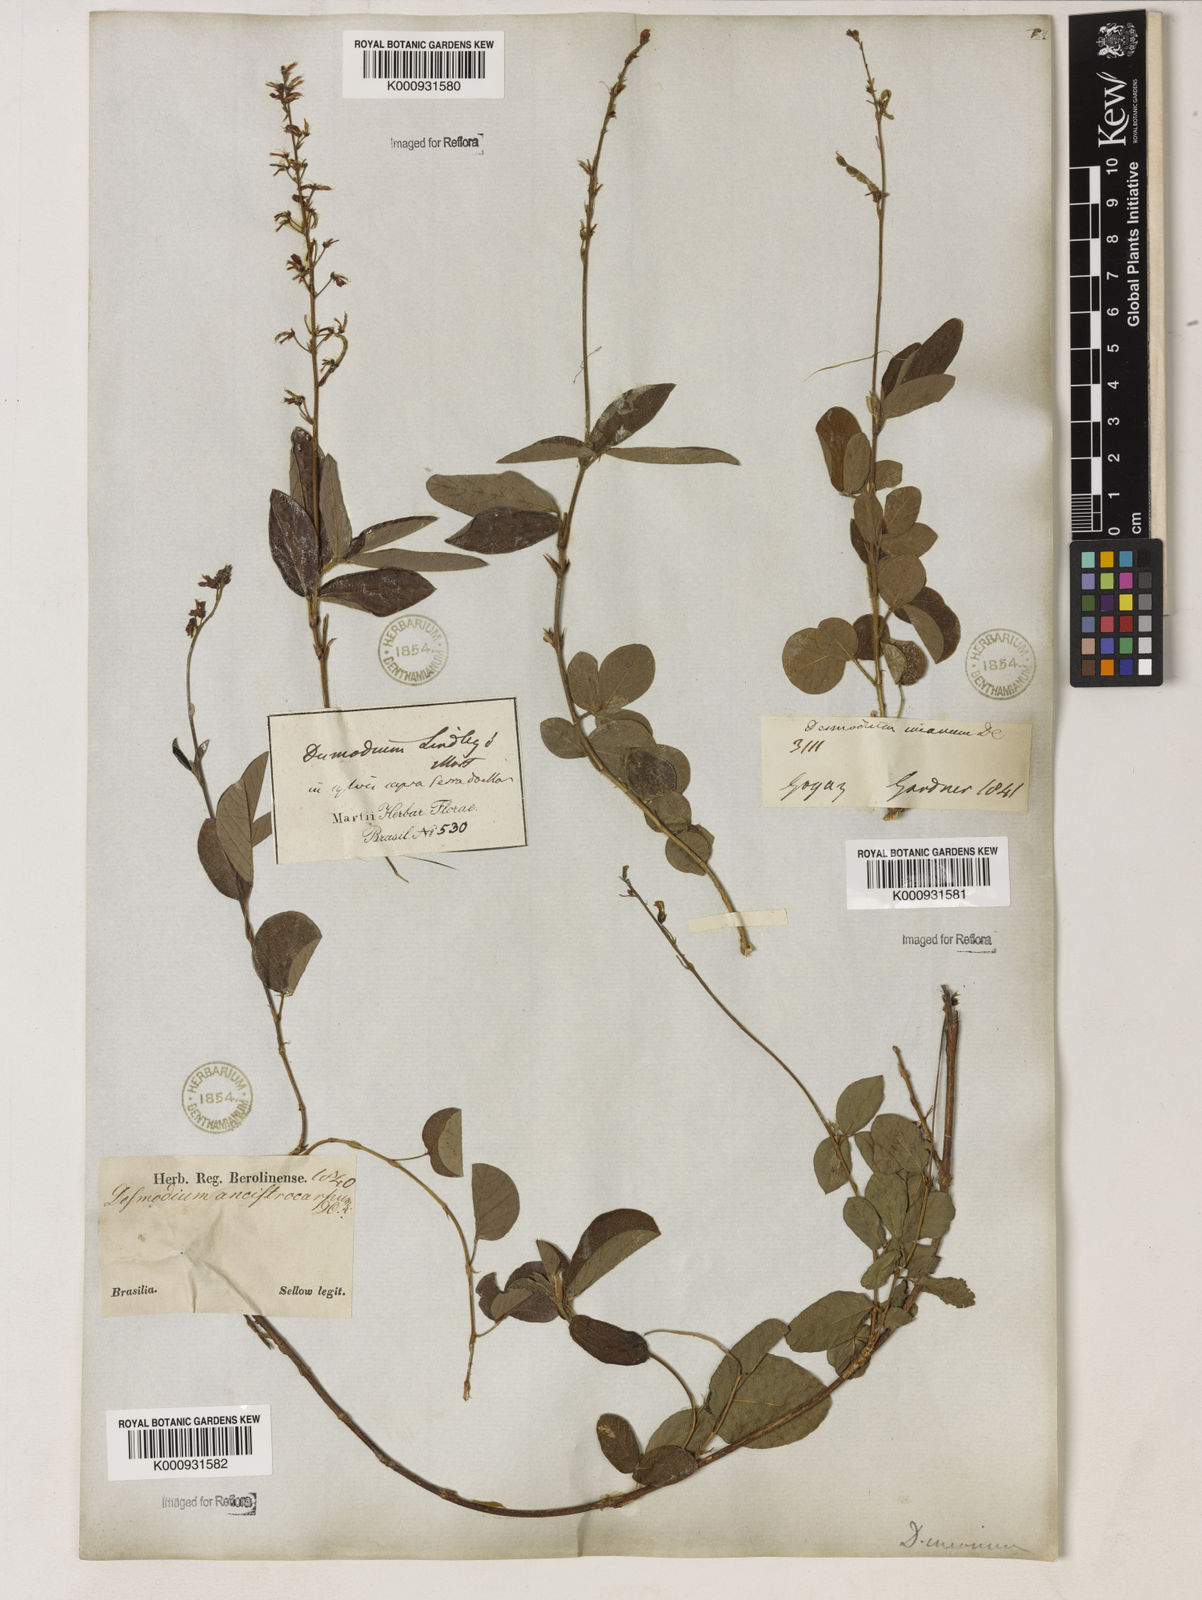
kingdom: Plantae
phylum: Tracheophyta
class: Magnoliopsida
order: Fabales
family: Fabaceae
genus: Desmodium
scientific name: Desmodium incanum
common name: Tickclover
